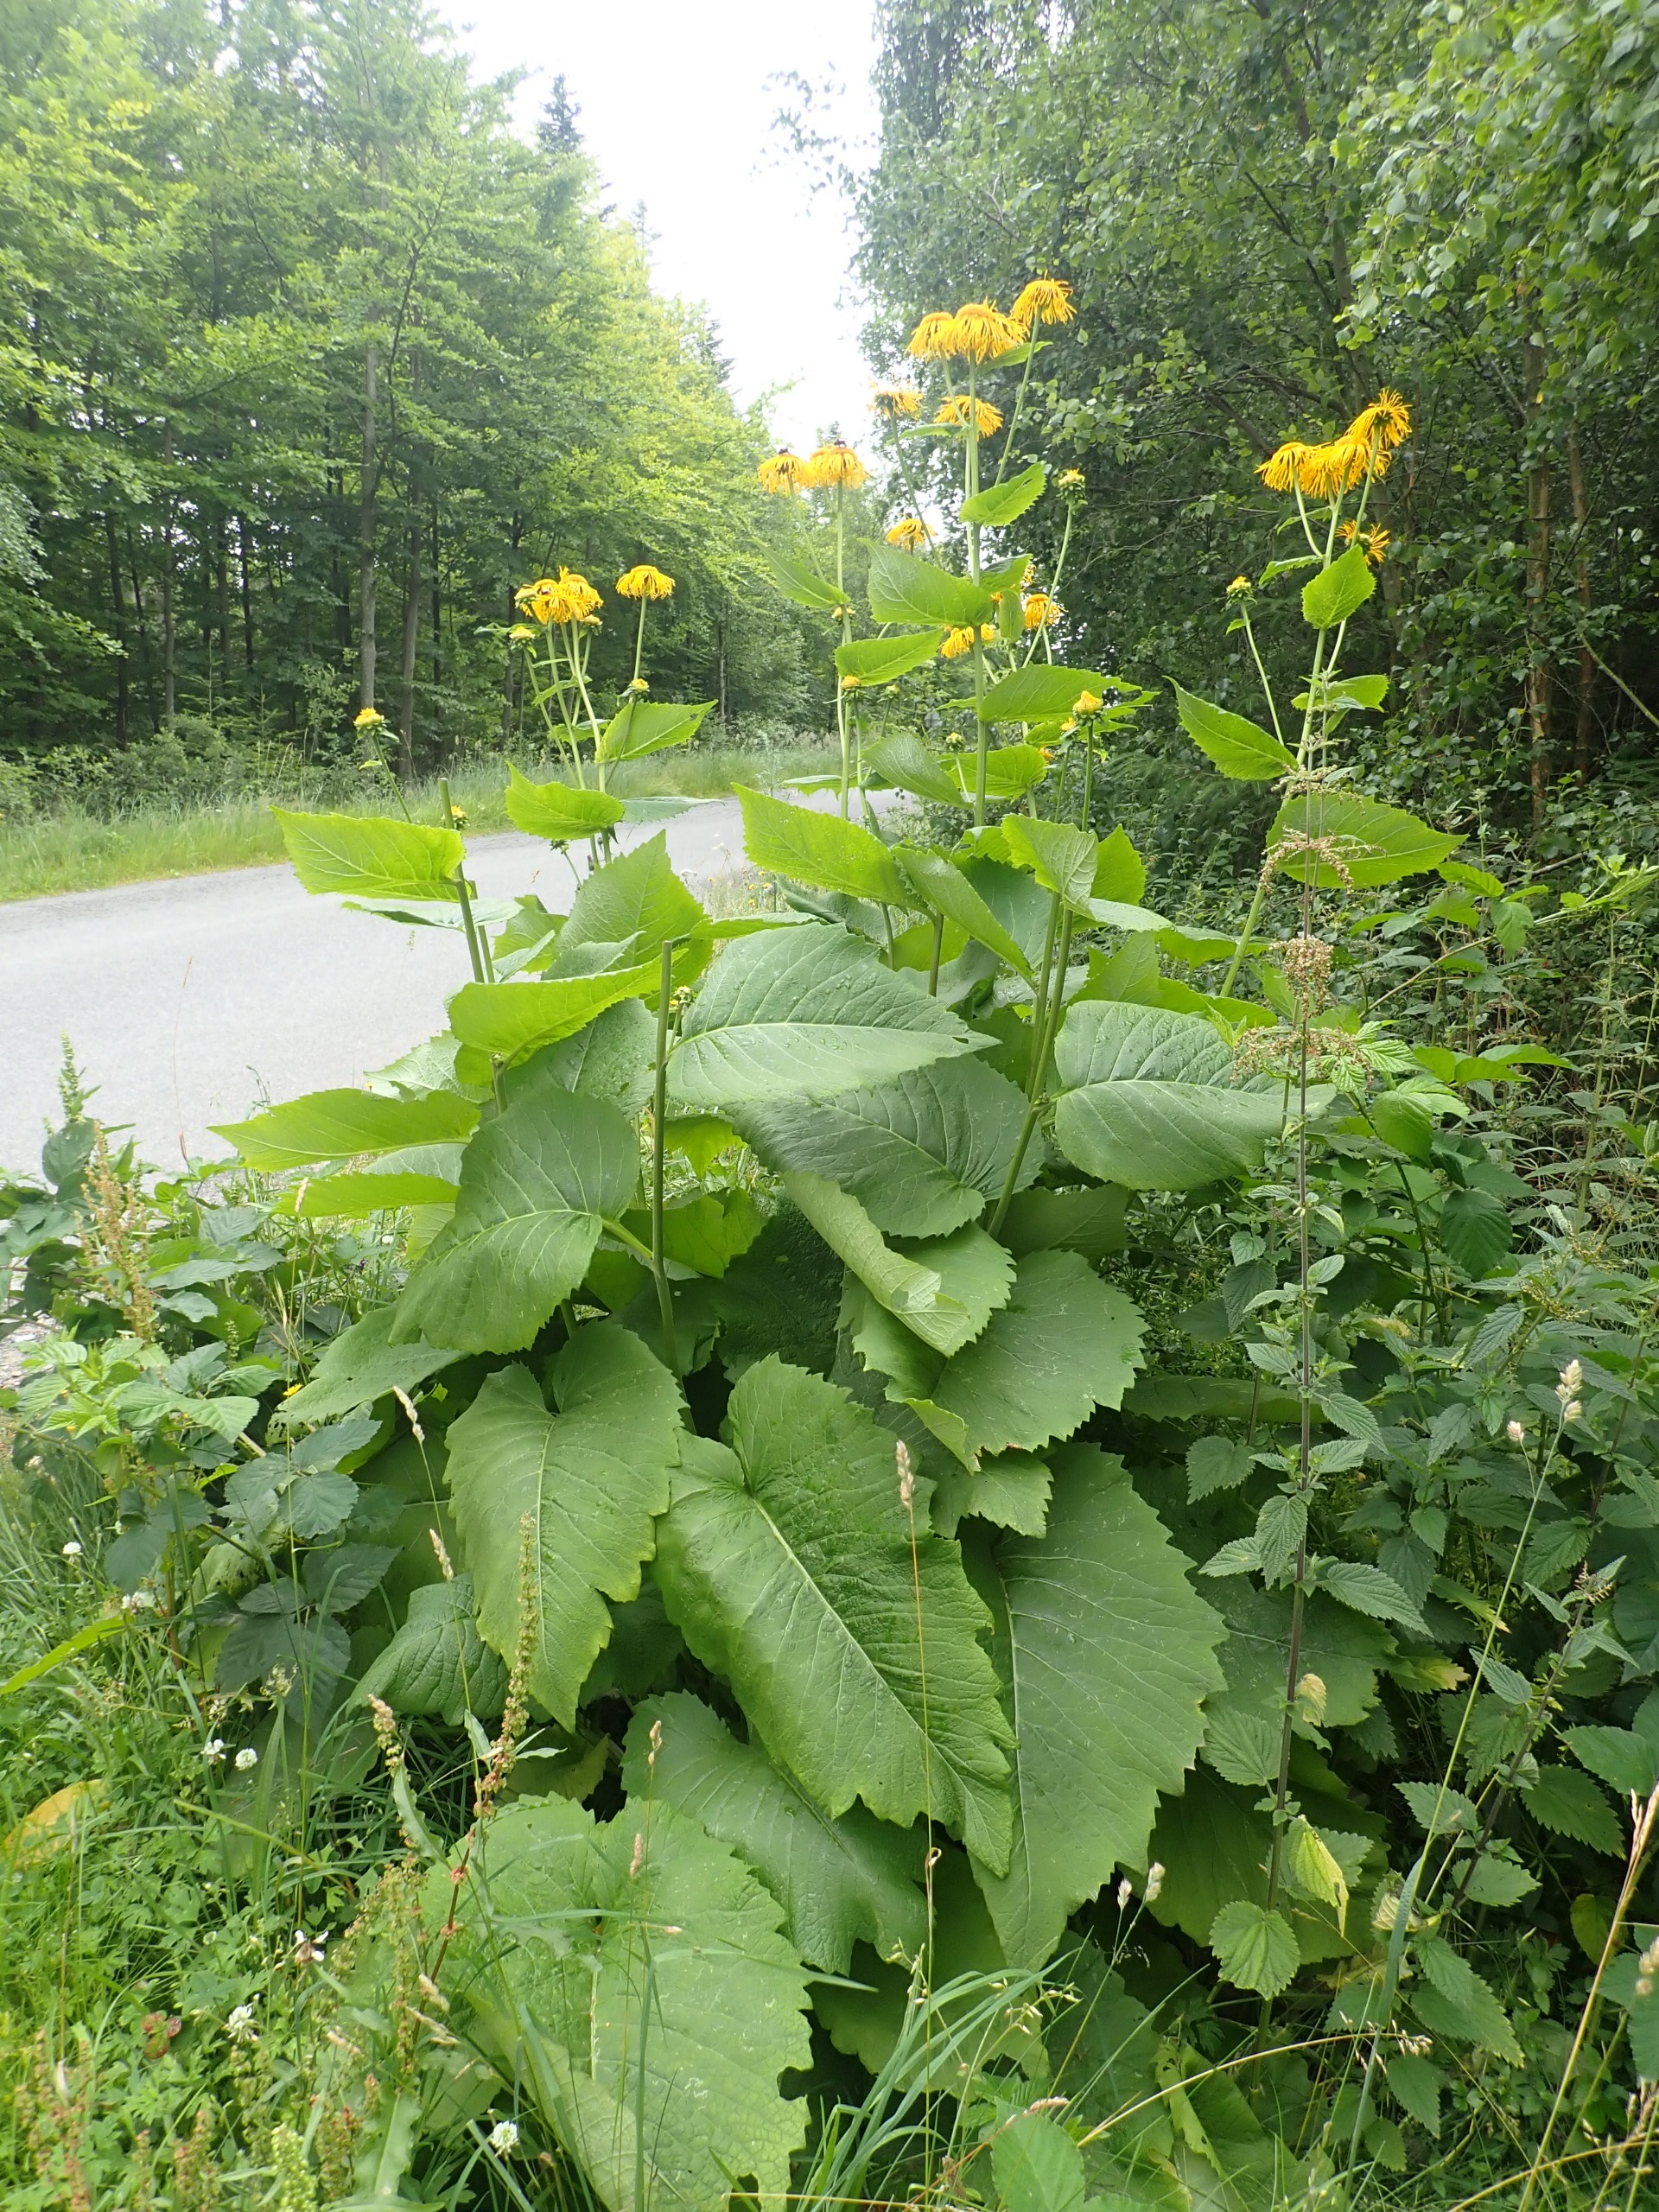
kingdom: Plantae
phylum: Tracheophyta
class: Magnoliopsida
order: Asterales
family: Asteraceae
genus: Telekia
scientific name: Telekia speciosa
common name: Tusindstråle
